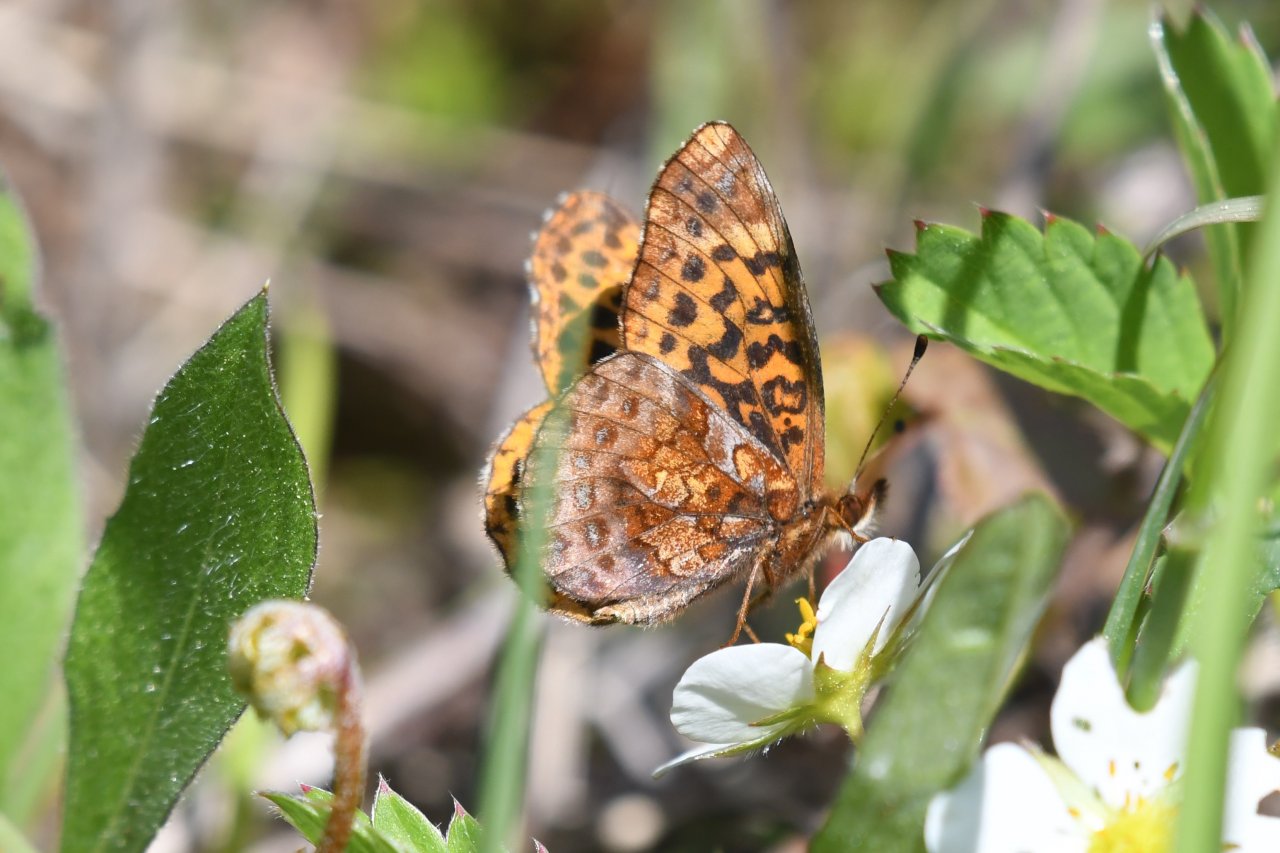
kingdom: Animalia
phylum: Arthropoda
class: Insecta
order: Lepidoptera
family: Nymphalidae
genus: Clossiana
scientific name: Clossiana toddi
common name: Meadow Fritillary
